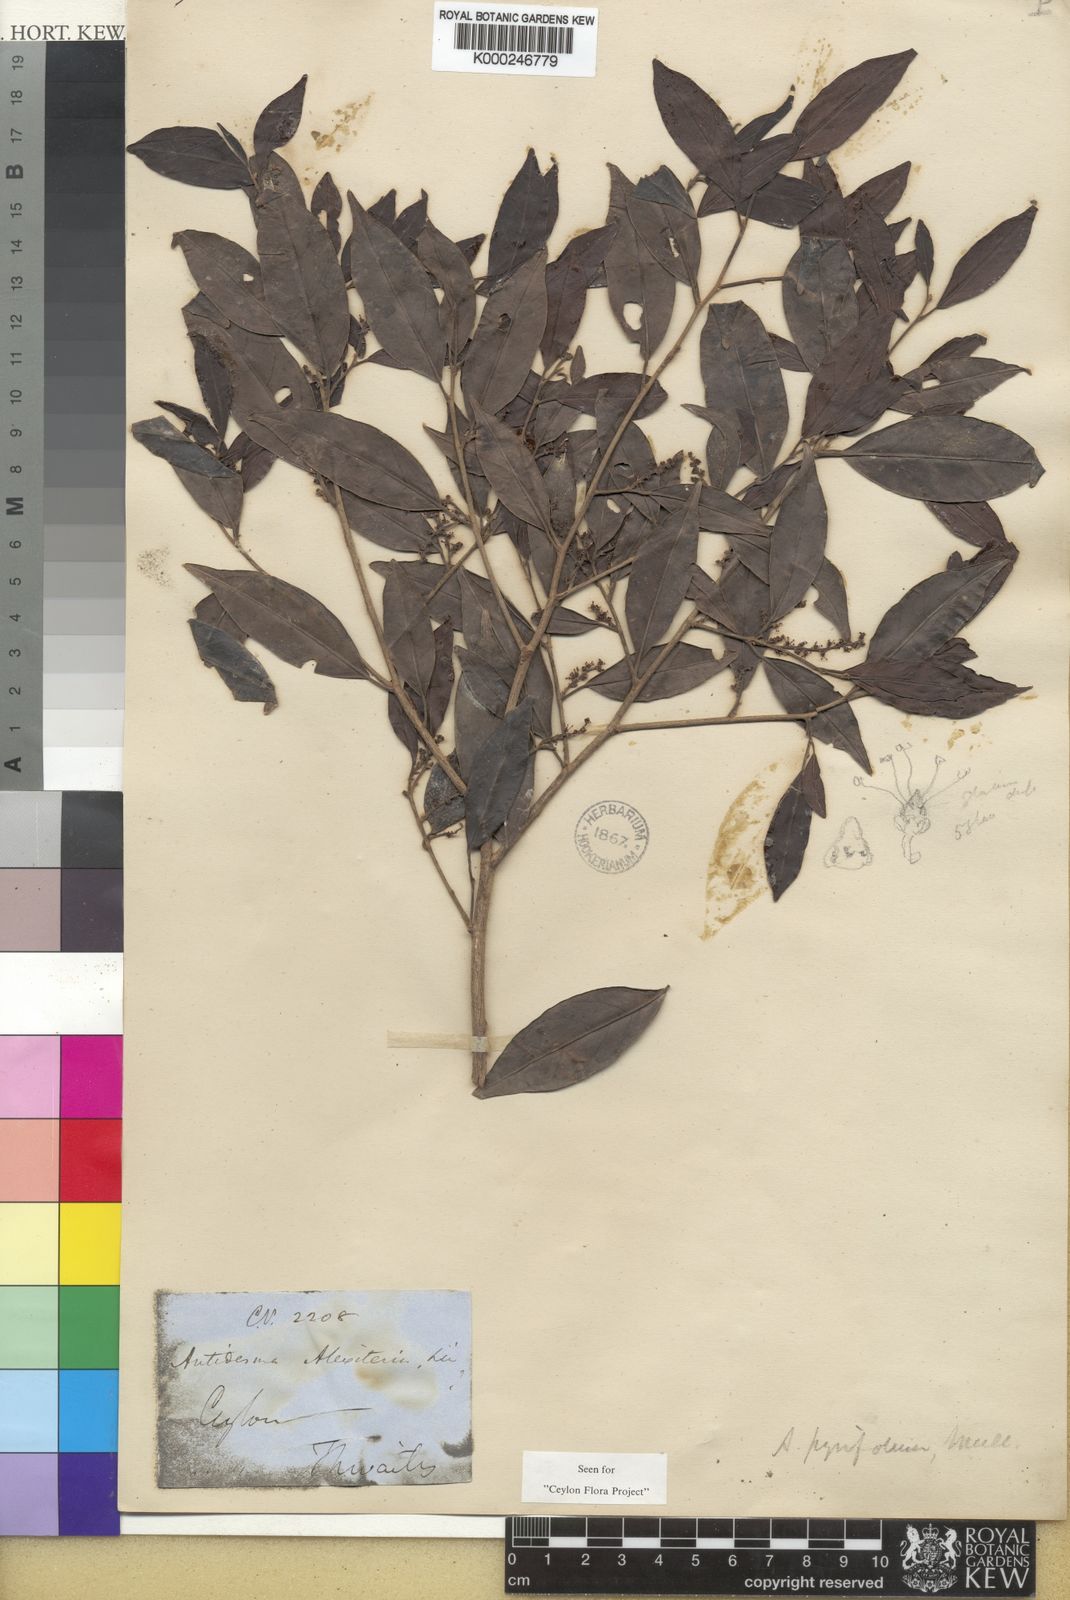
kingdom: Plantae
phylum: Tracheophyta
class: Magnoliopsida
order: Malpighiales
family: Phyllanthaceae
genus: Antidesma
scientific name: Antidesma
